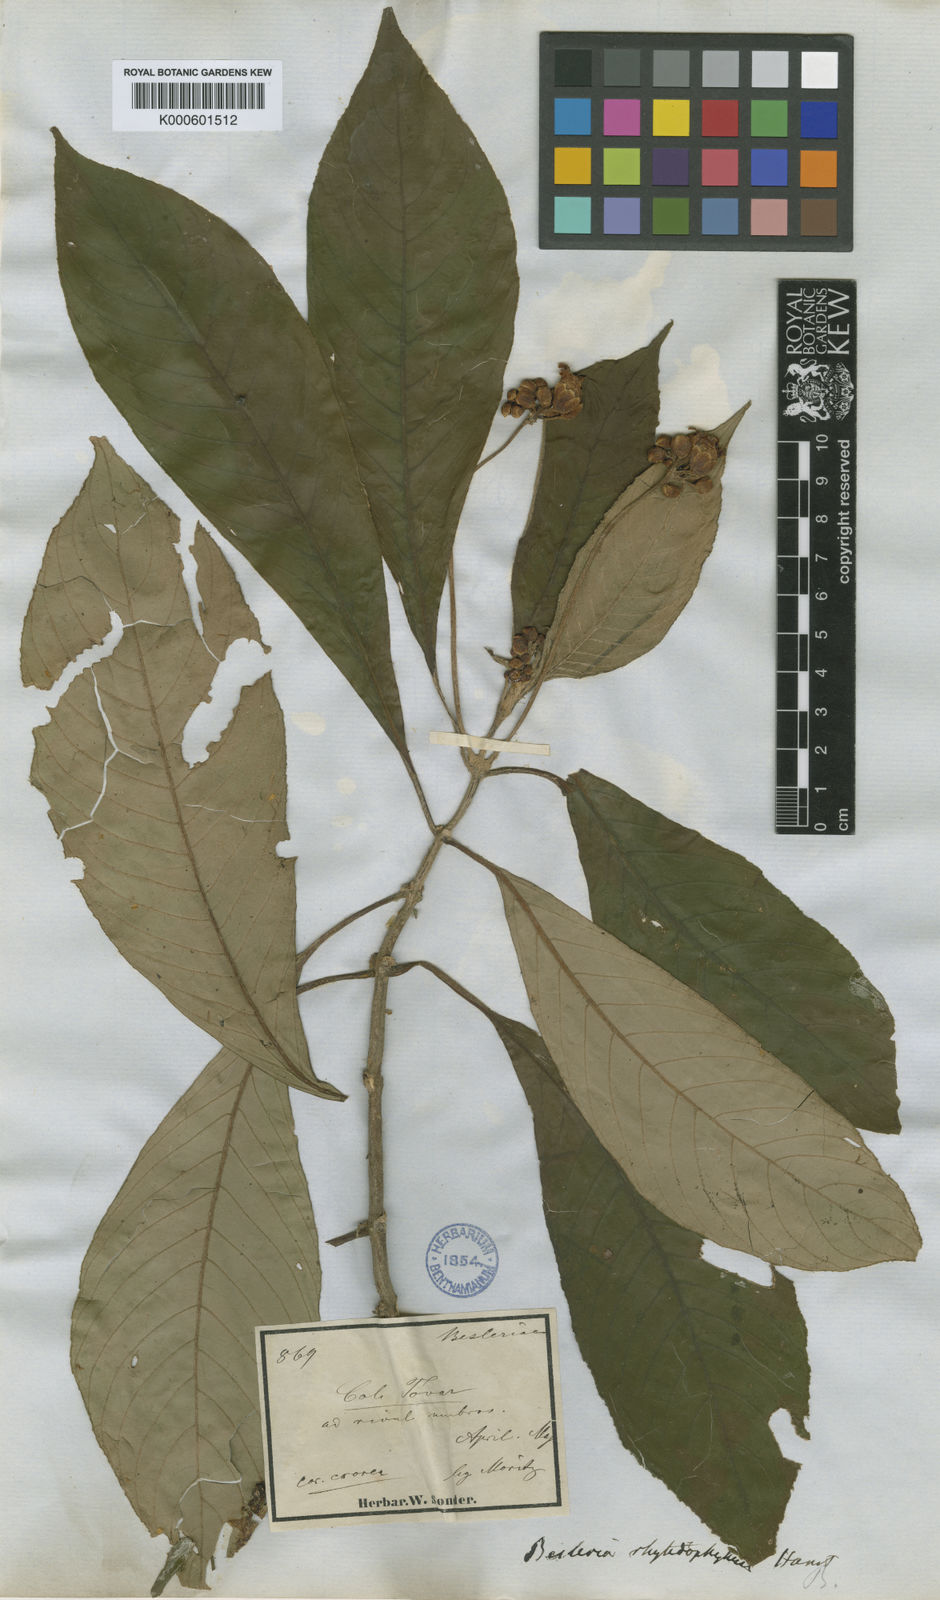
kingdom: Plantae
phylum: Tracheophyta
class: Magnoliopsida
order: Lamiales
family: Gesneriaceae
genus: Besleria
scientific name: Besleria rhytidophyllum
